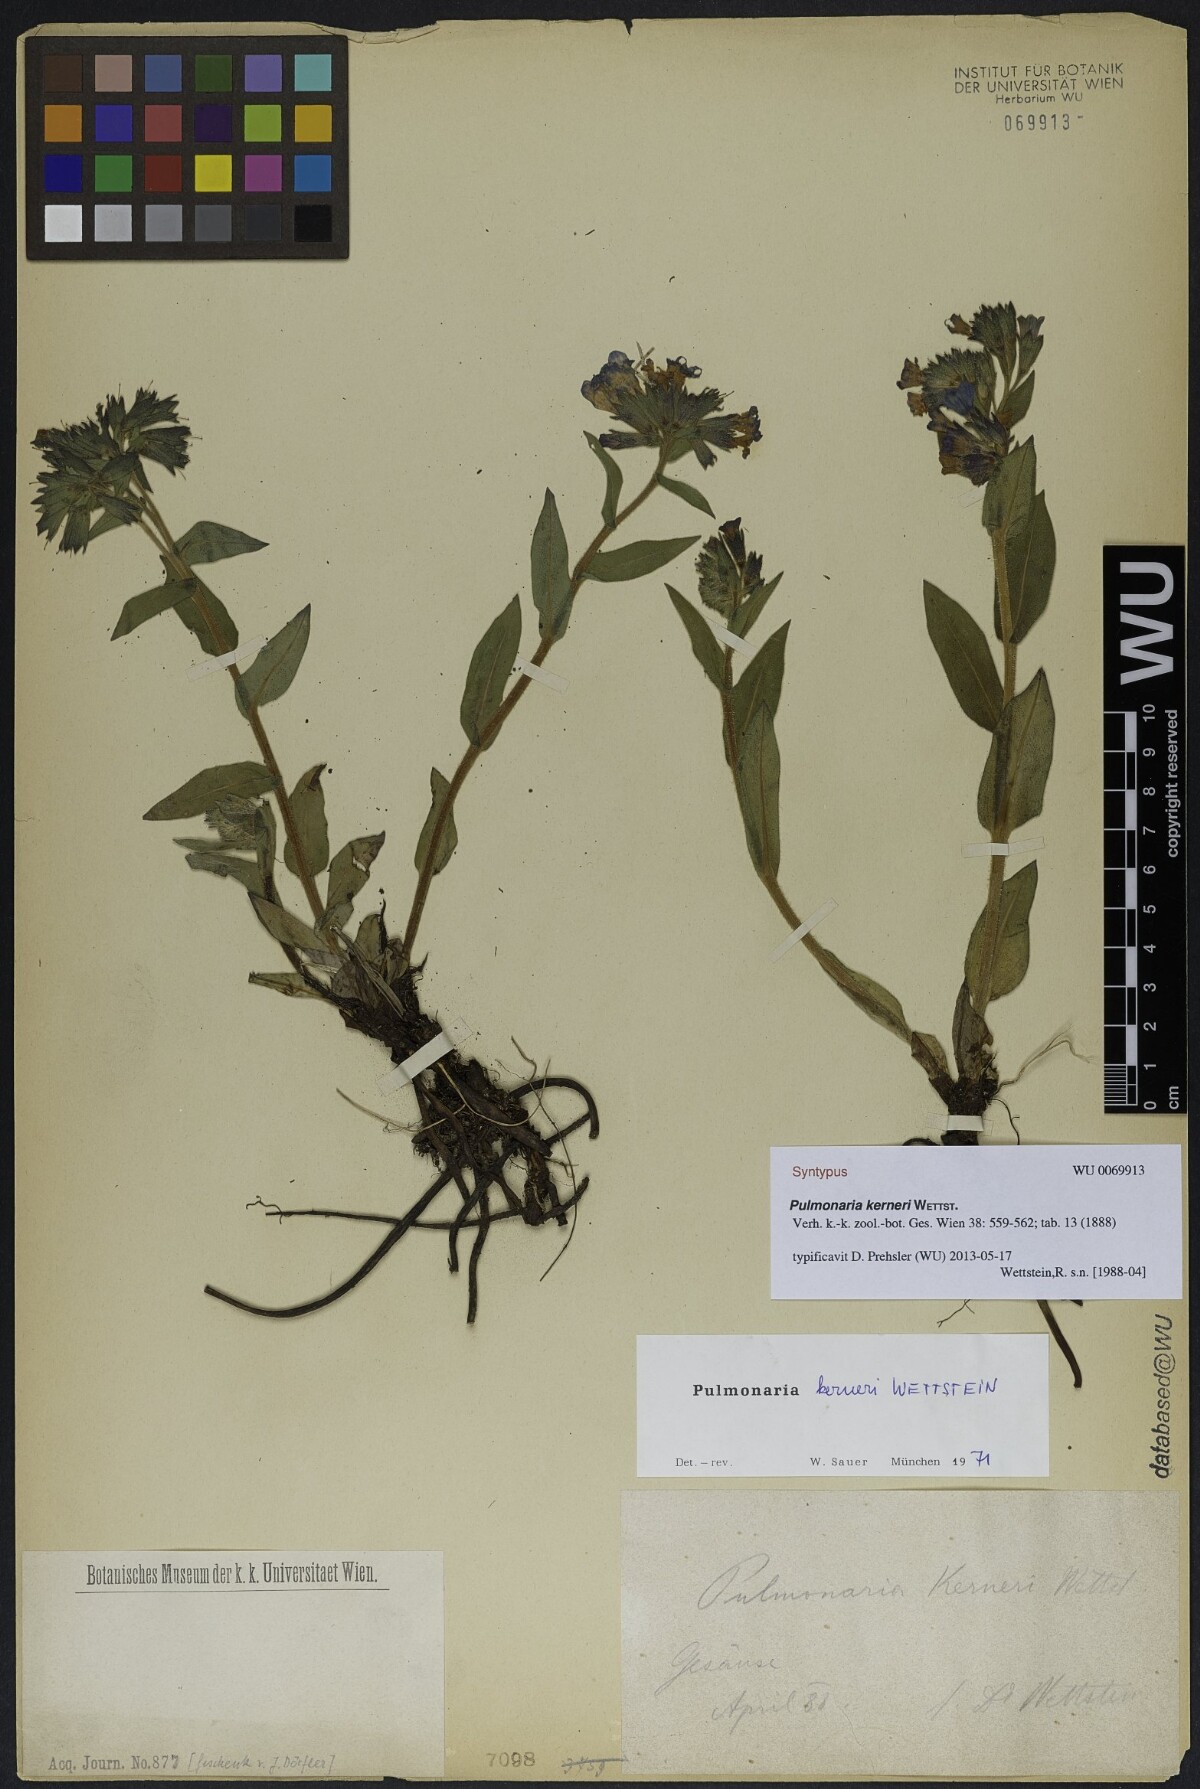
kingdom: Plantae
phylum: Tracheophyta
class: Magnoliopsida
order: Boraginales
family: Boraginaceae
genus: Pulmonaria
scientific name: Pulmonaria kerneri
